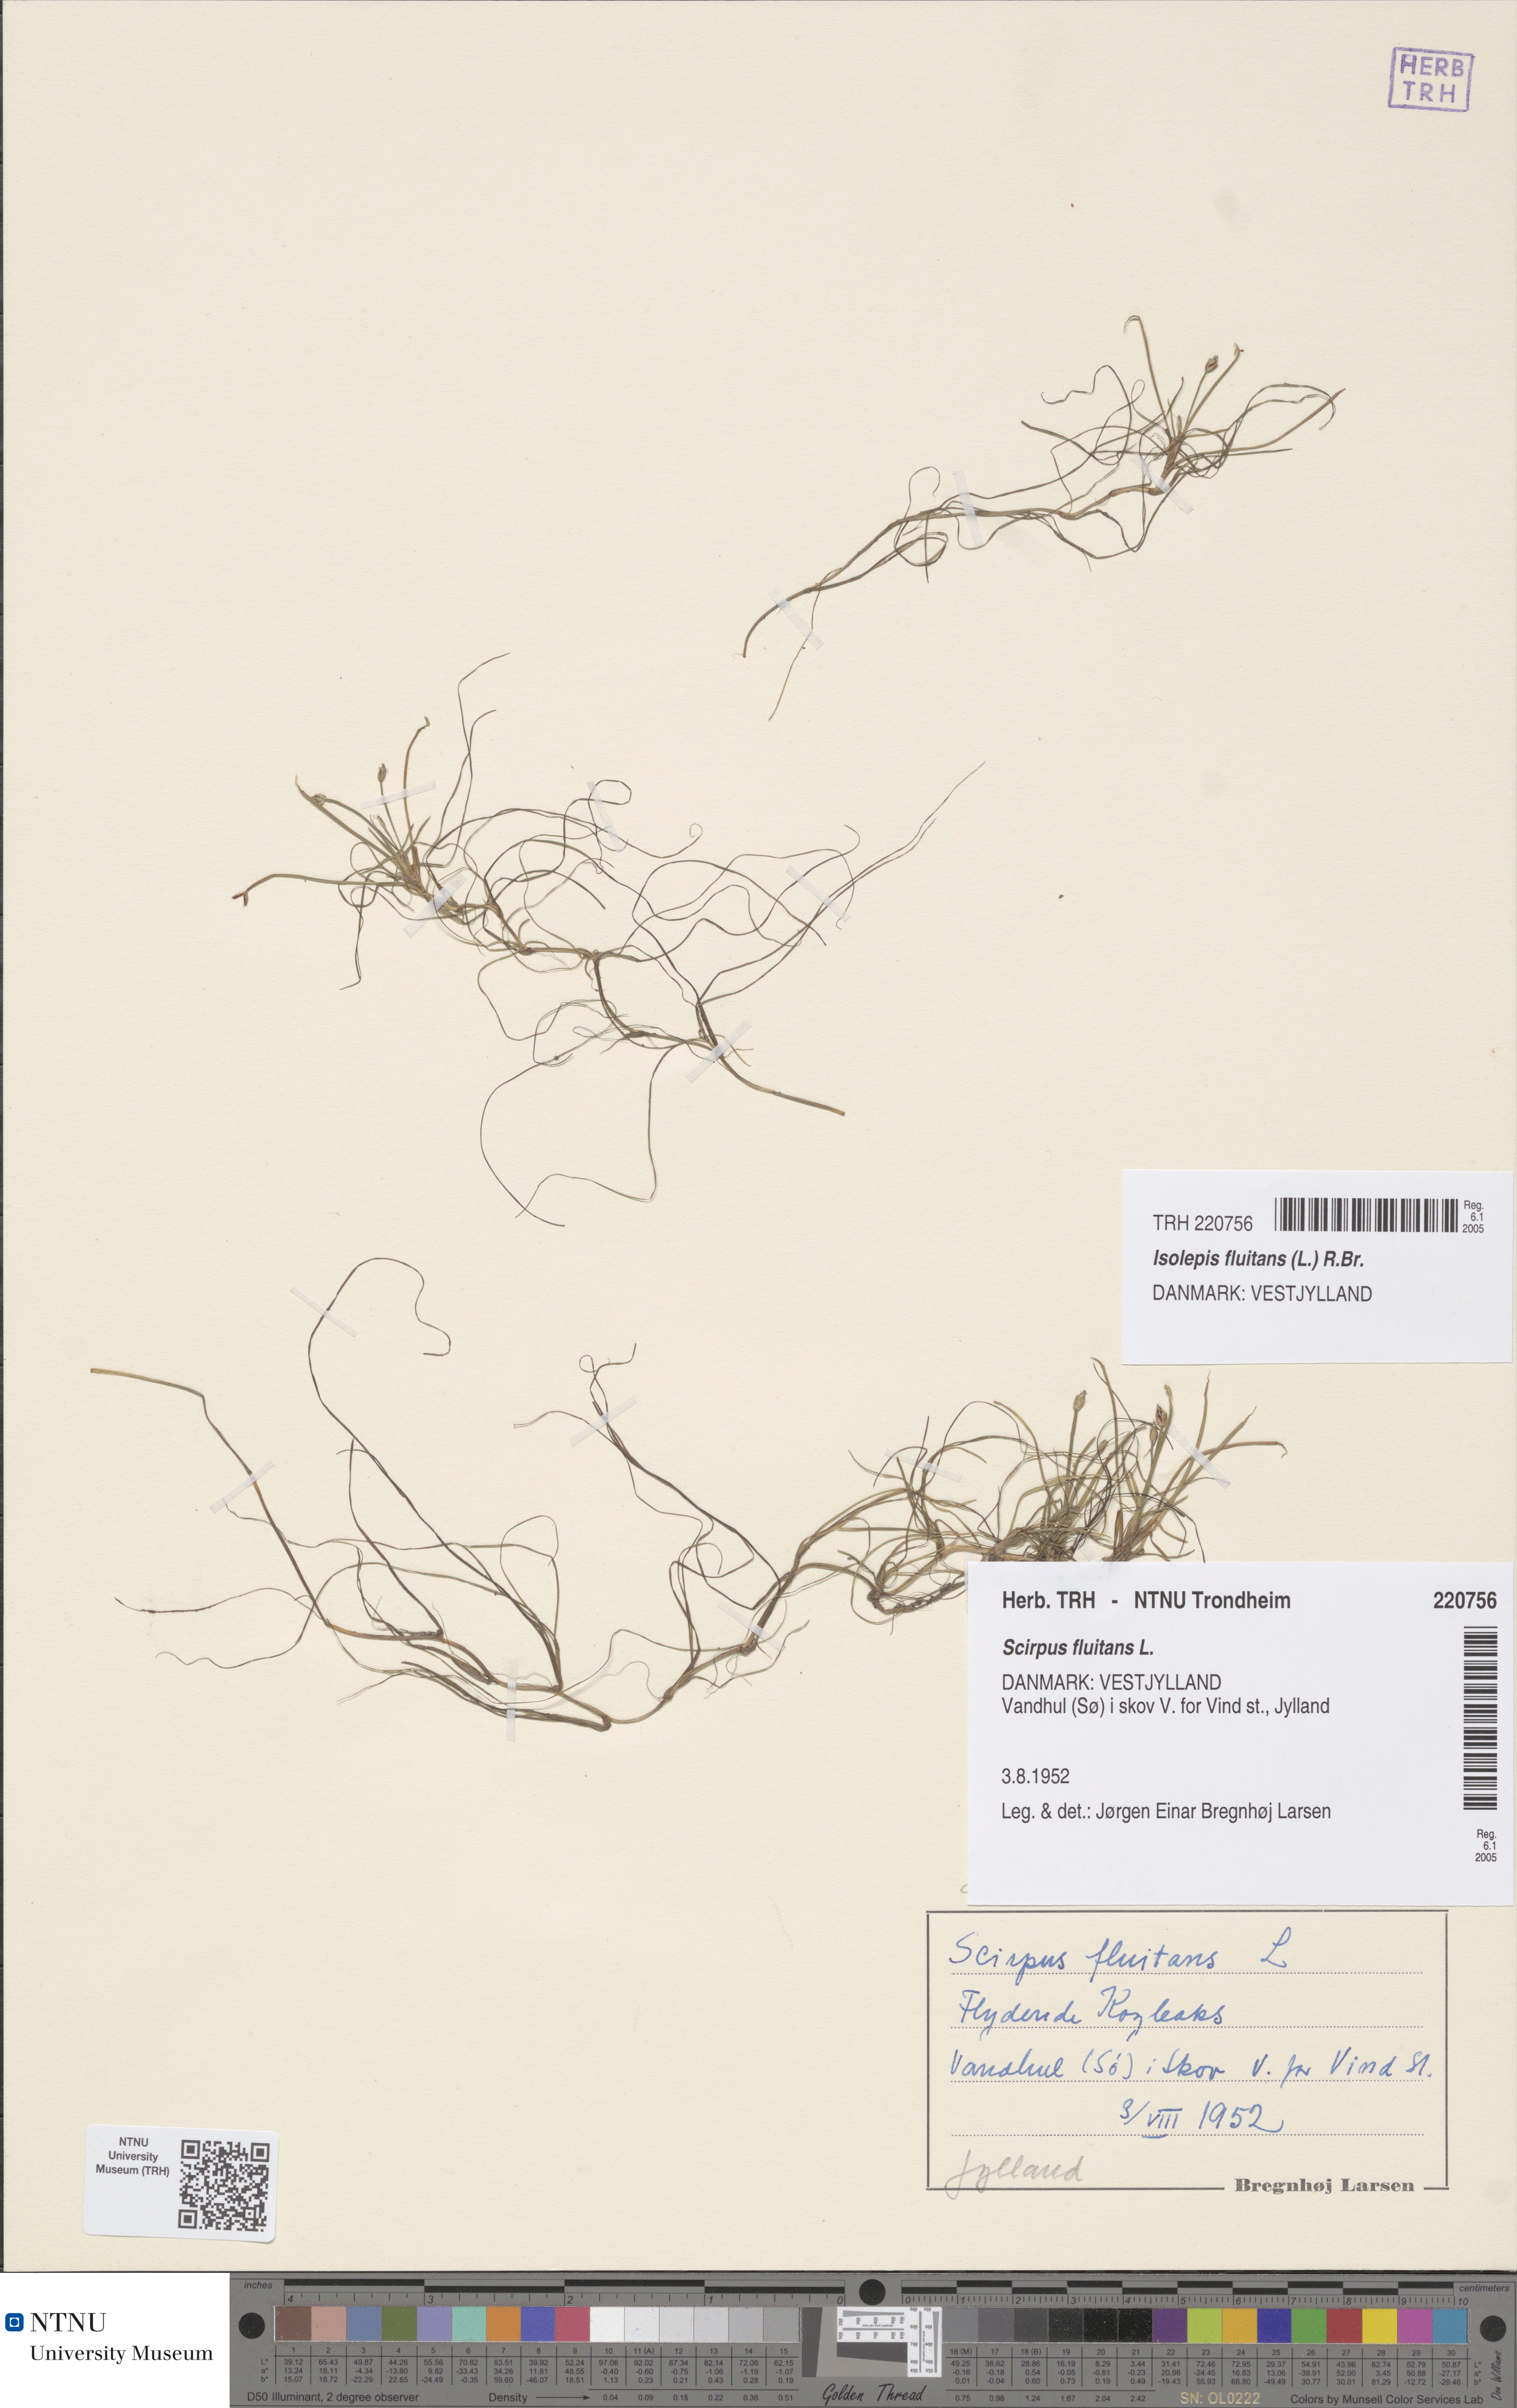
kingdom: Plantae
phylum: Tracheophyta
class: Liliopsida
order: Poales
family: Cyperaceae
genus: Isolepis
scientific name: Isolepis fluitans
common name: Floating club-rush
